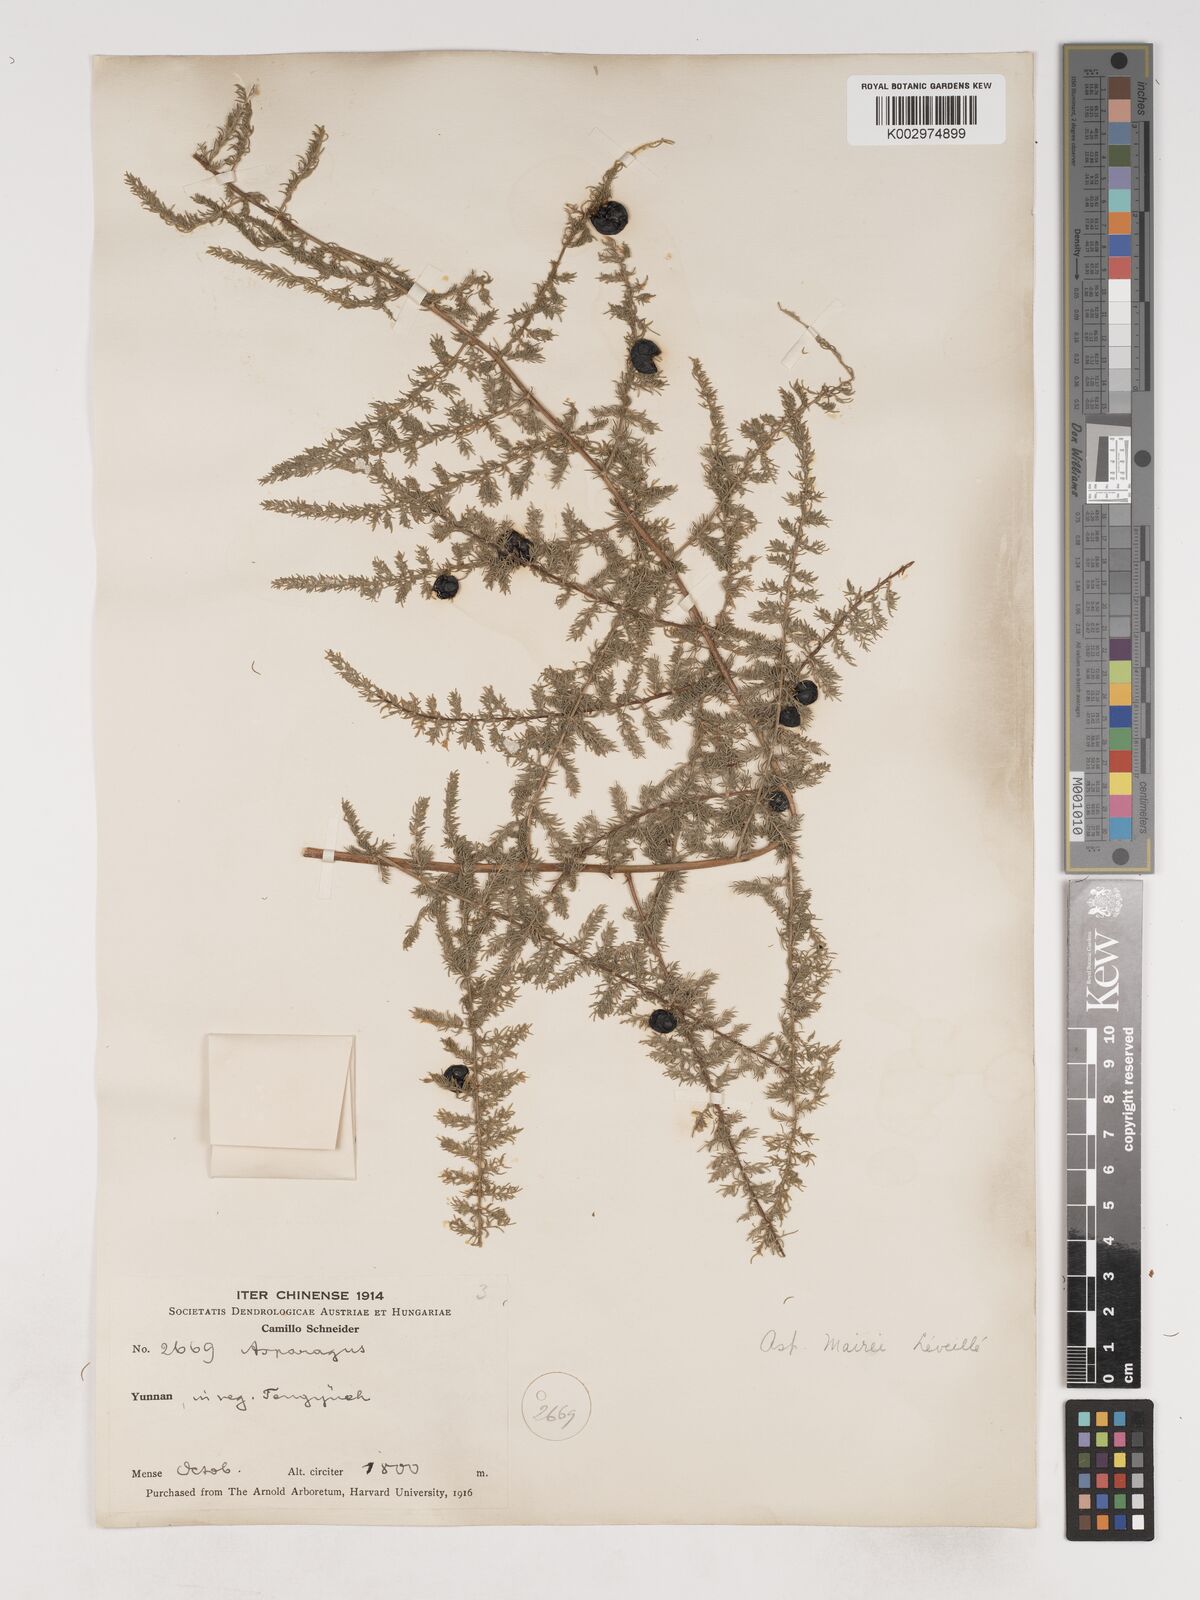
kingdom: Plantae
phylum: Tracheophyta
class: Liliopsida
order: Asparagales
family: Asparagaceae
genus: Asparagus
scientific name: Asparagus meioclados
